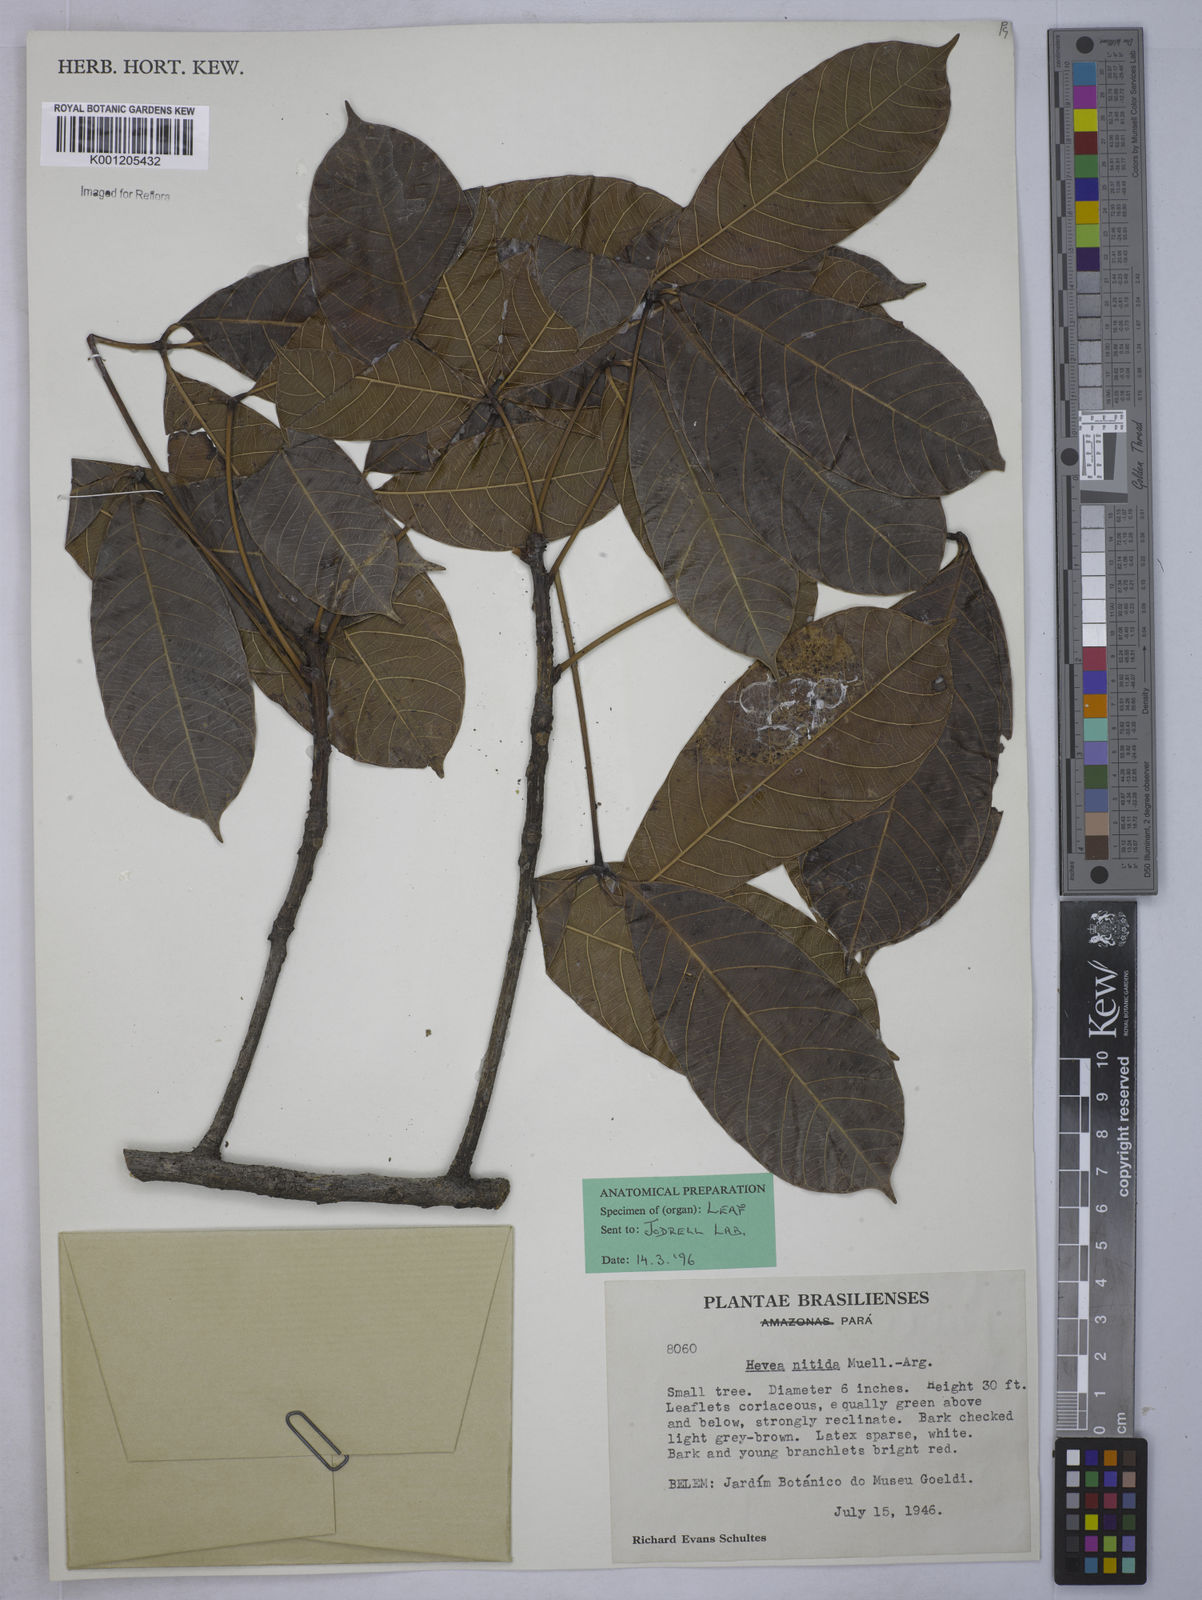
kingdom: Plantae
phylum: Tracheophyta
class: Magnoliopsida
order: Malpighiales
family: Euphorbiaceae
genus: Hevea
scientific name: Hevea
